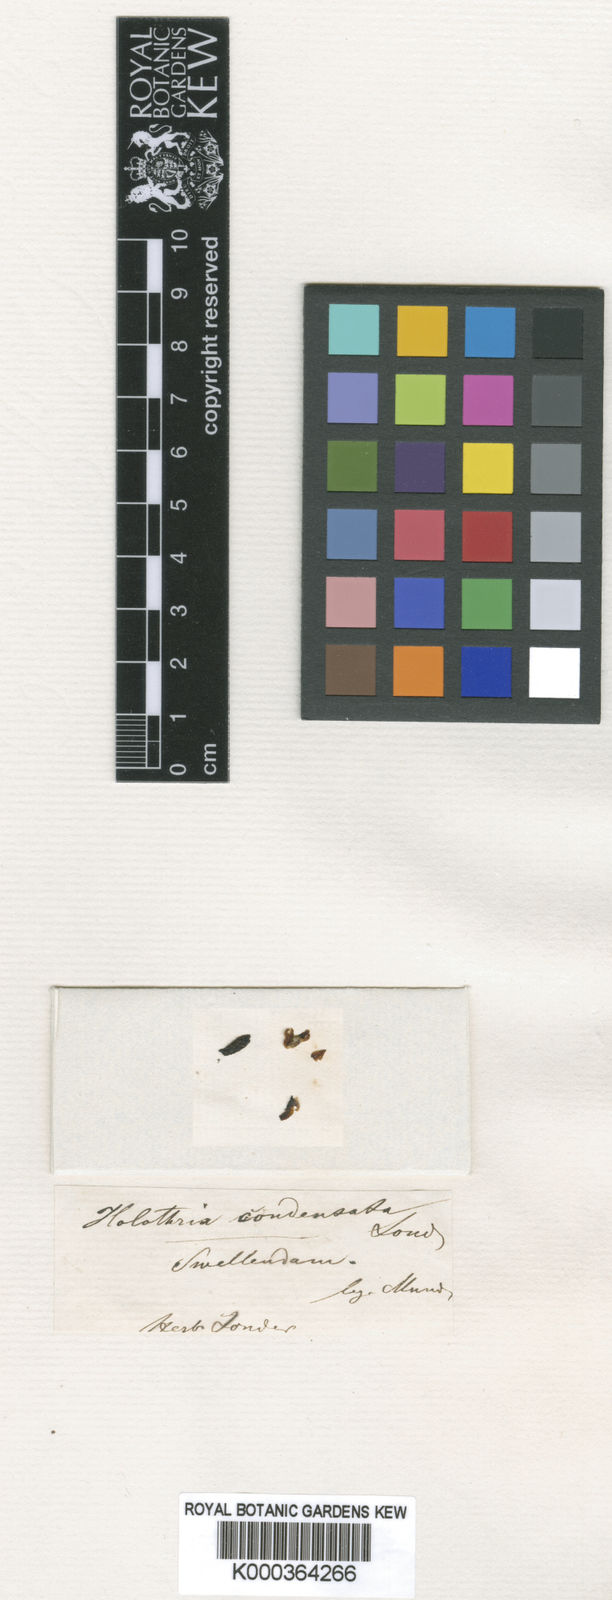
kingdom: Plantae
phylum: Tracheophyta
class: Liliopsida
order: Asparagales
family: Orchidaceae
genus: Holothrix
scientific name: Holothrix condensata
